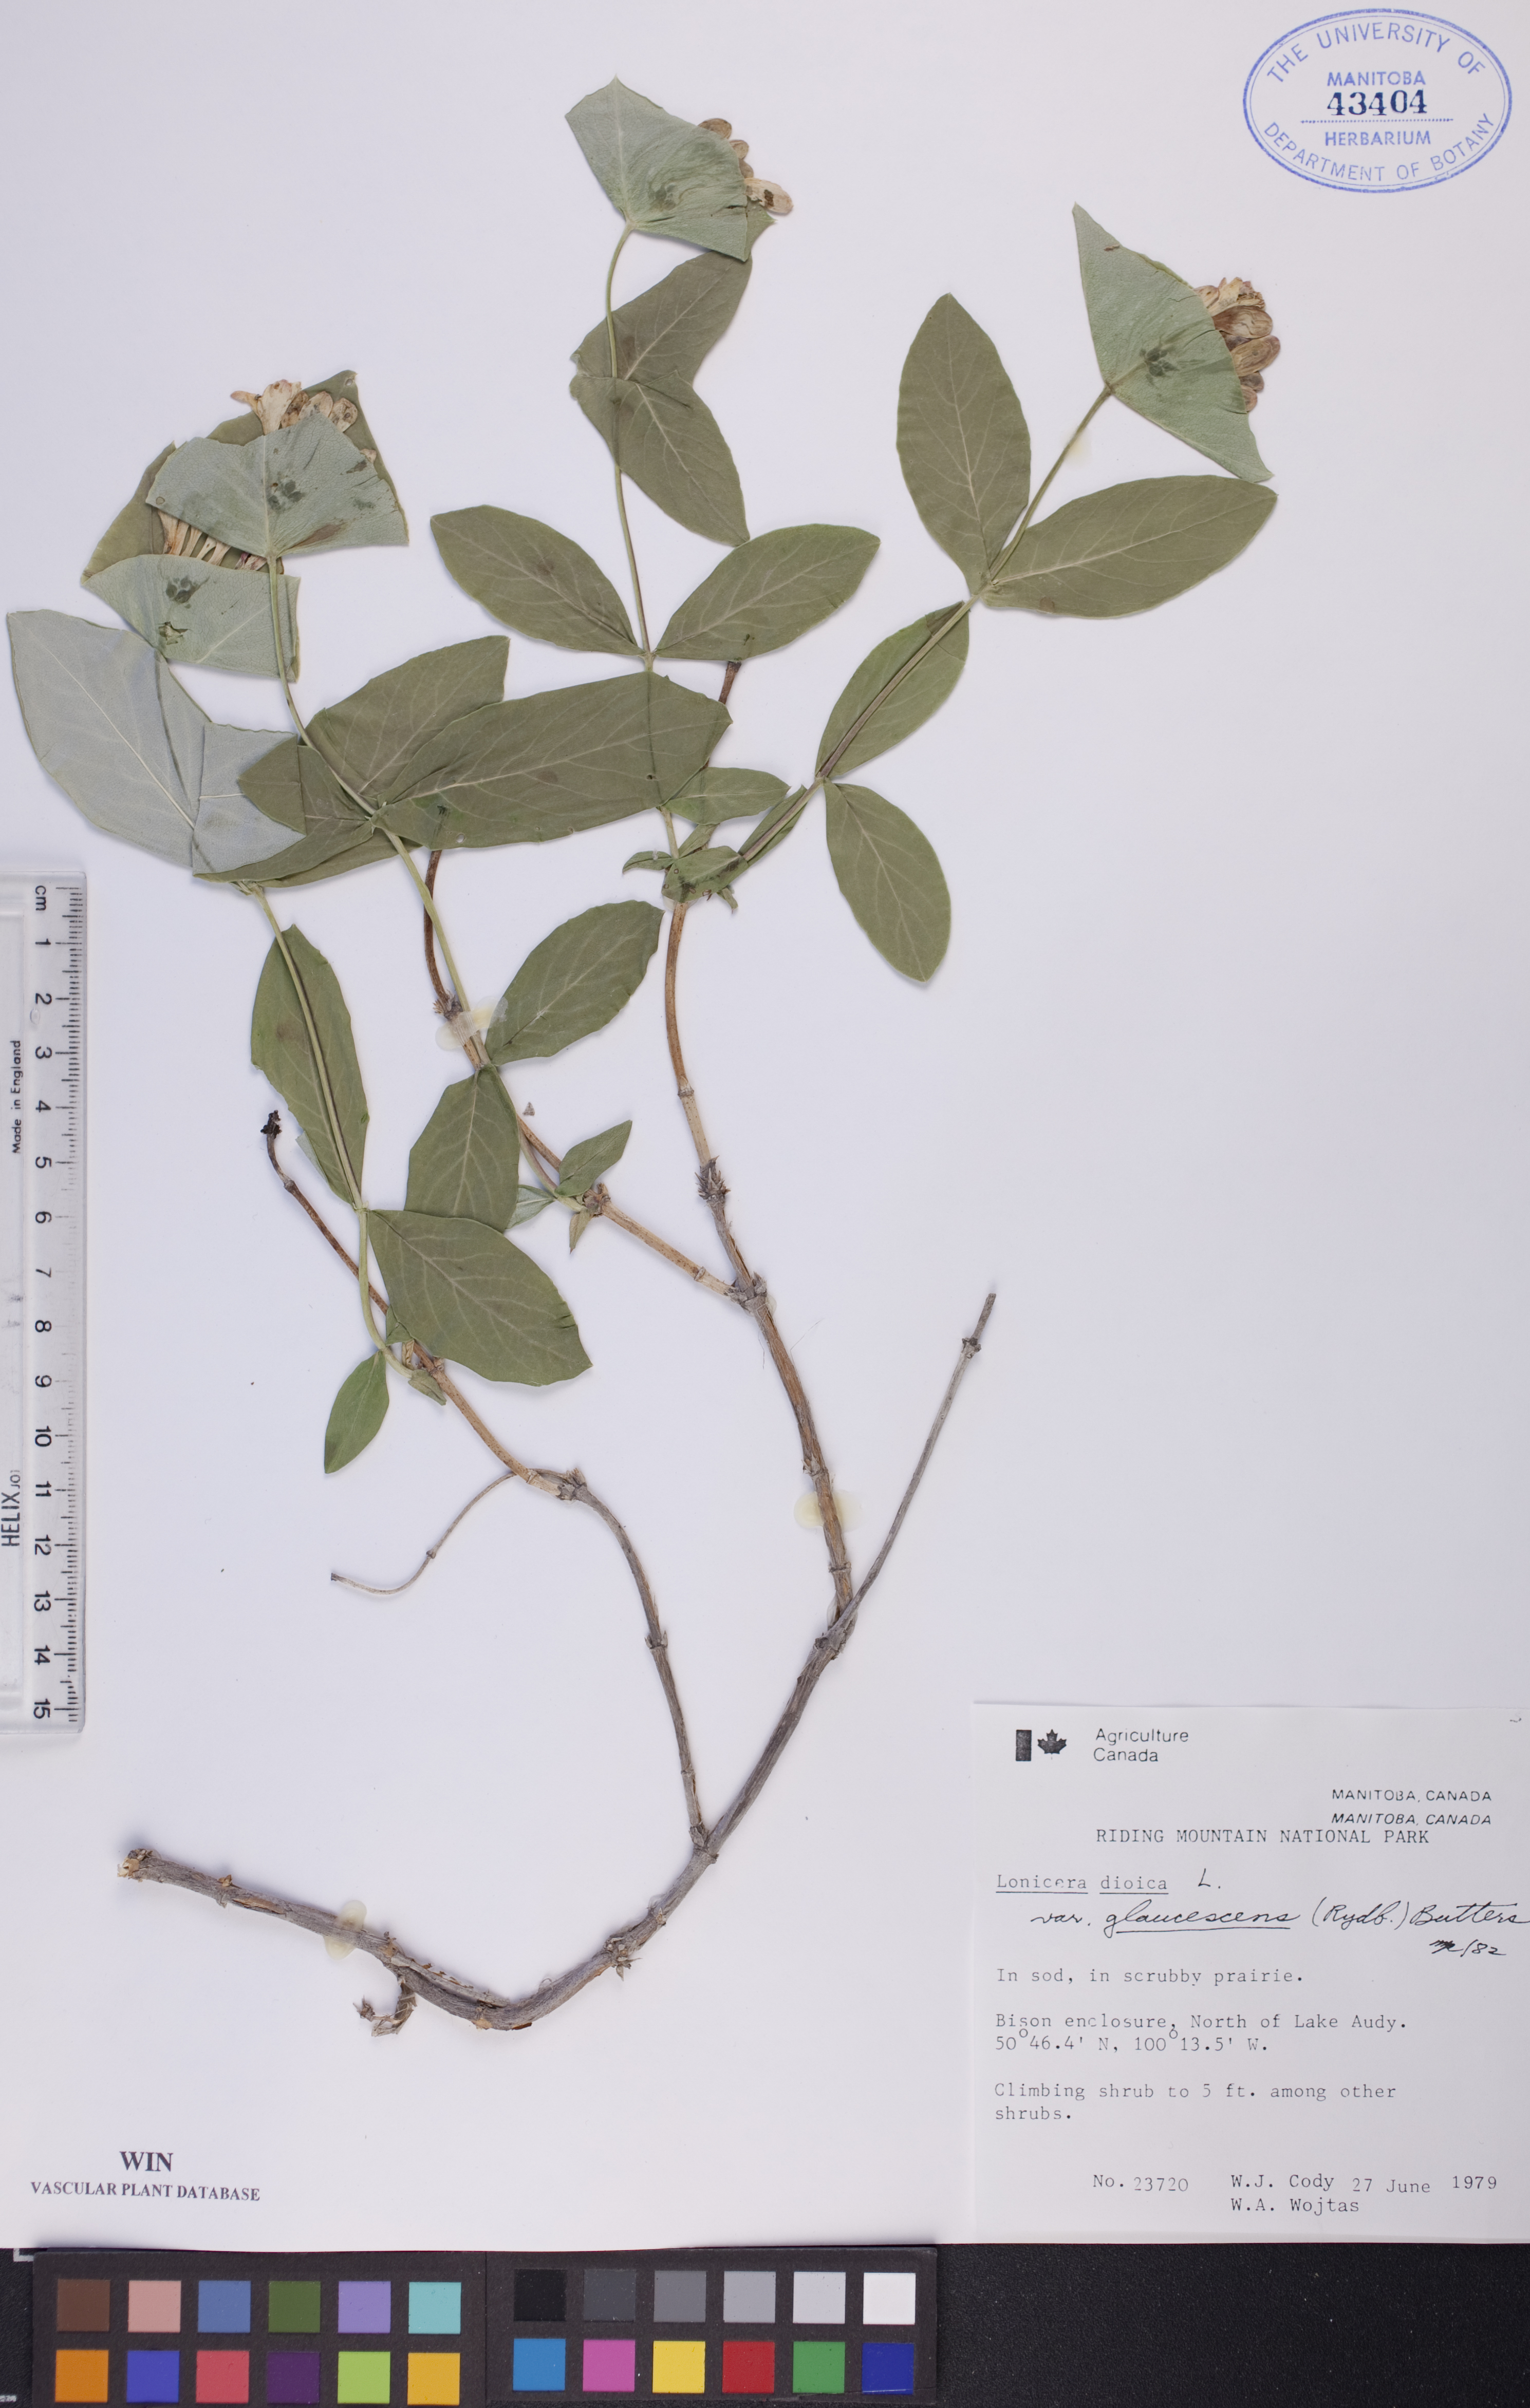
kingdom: Plantae
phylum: Tracheophyta
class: Magnoliopsida
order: Dipsacales
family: Caprifoliaceae
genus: Lonicera
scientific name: Lonicera dioica
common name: Limber honeysuckle
